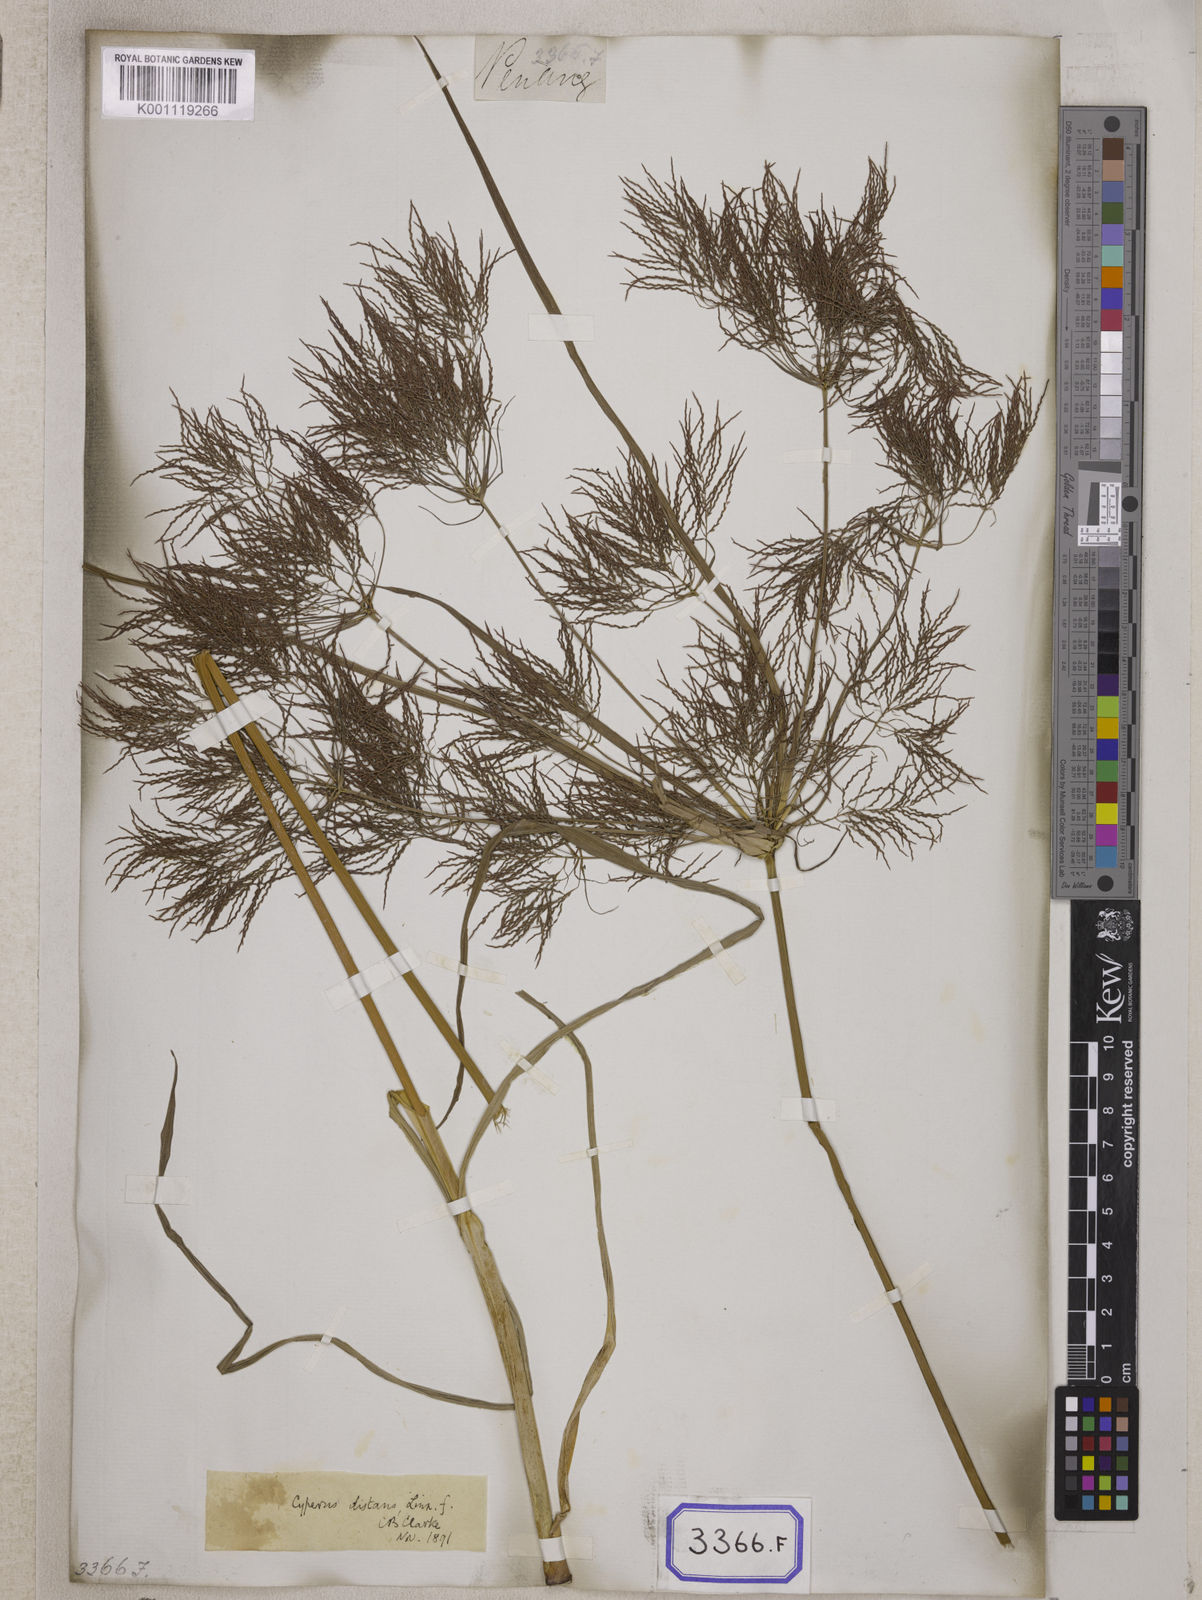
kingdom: Plantae
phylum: Tracheophyta
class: Liliopsida
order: Poales
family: Cyperaceae
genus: Cyperus
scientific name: Cyperus
